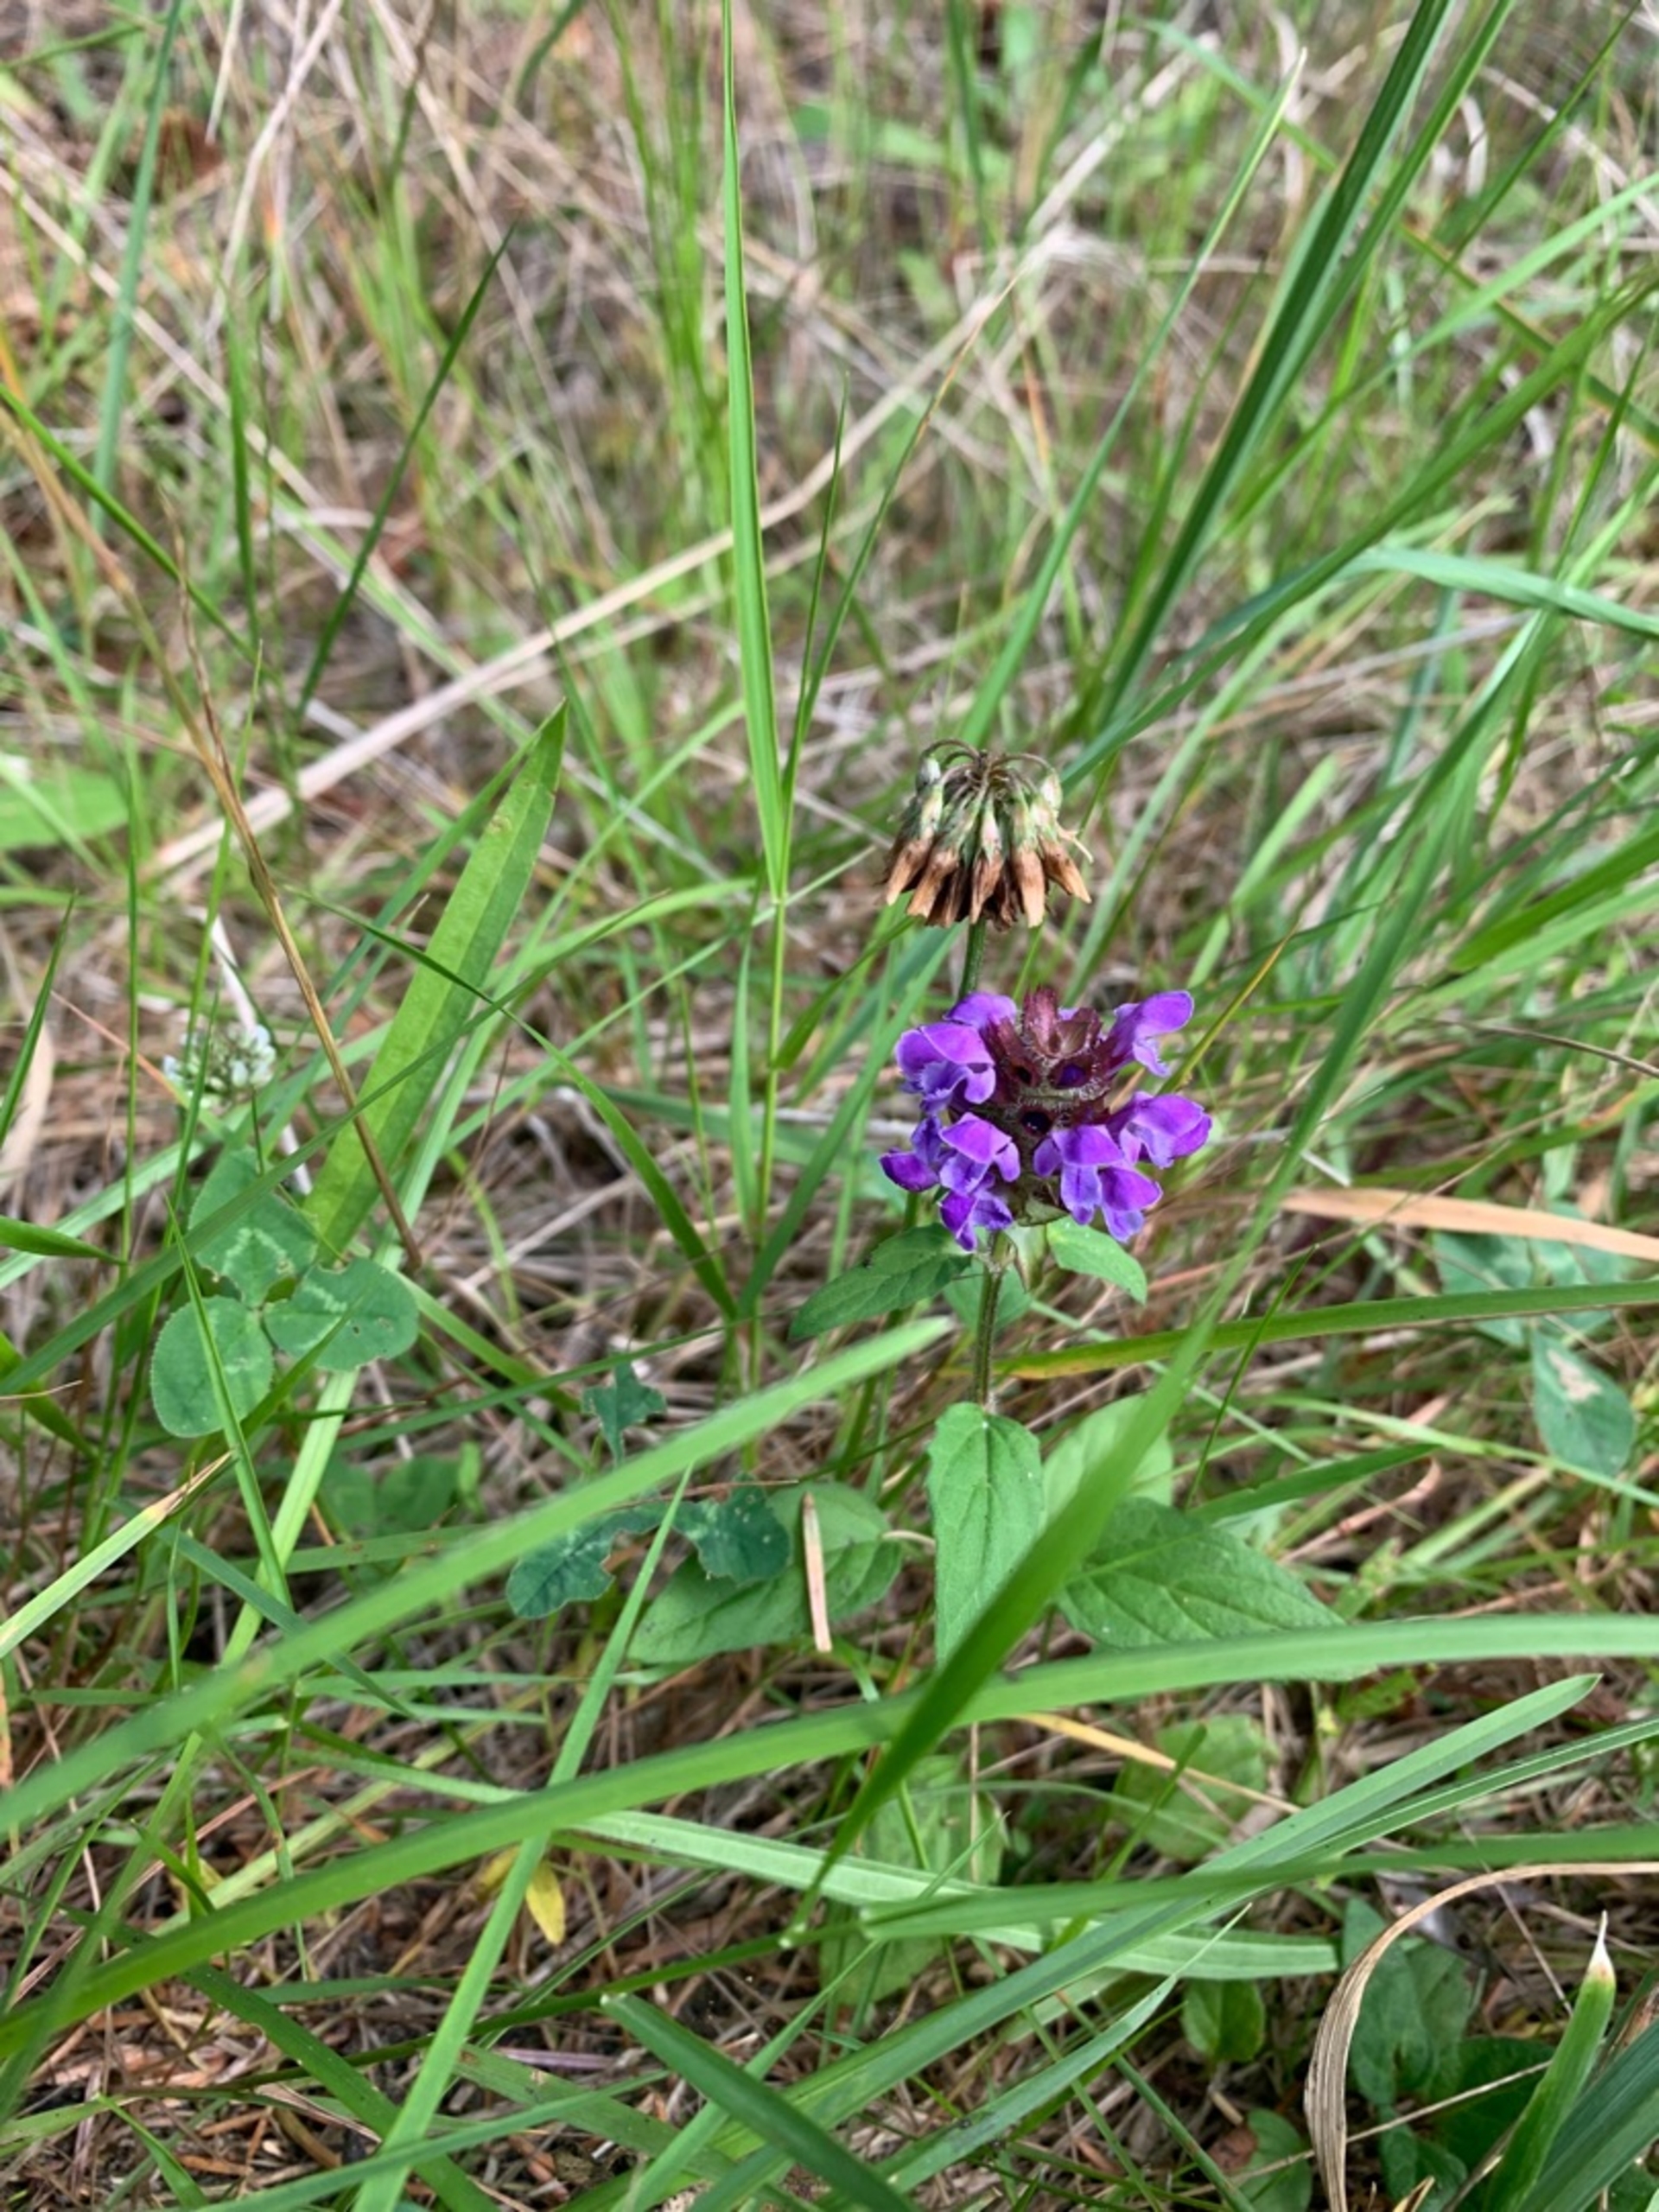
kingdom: Plantae
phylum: Tracheophyta
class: Magnoliopsida
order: Lamiales
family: Lamiaceae
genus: Prunella
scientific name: Prunella vulgaris
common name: Almindelig brunelle
